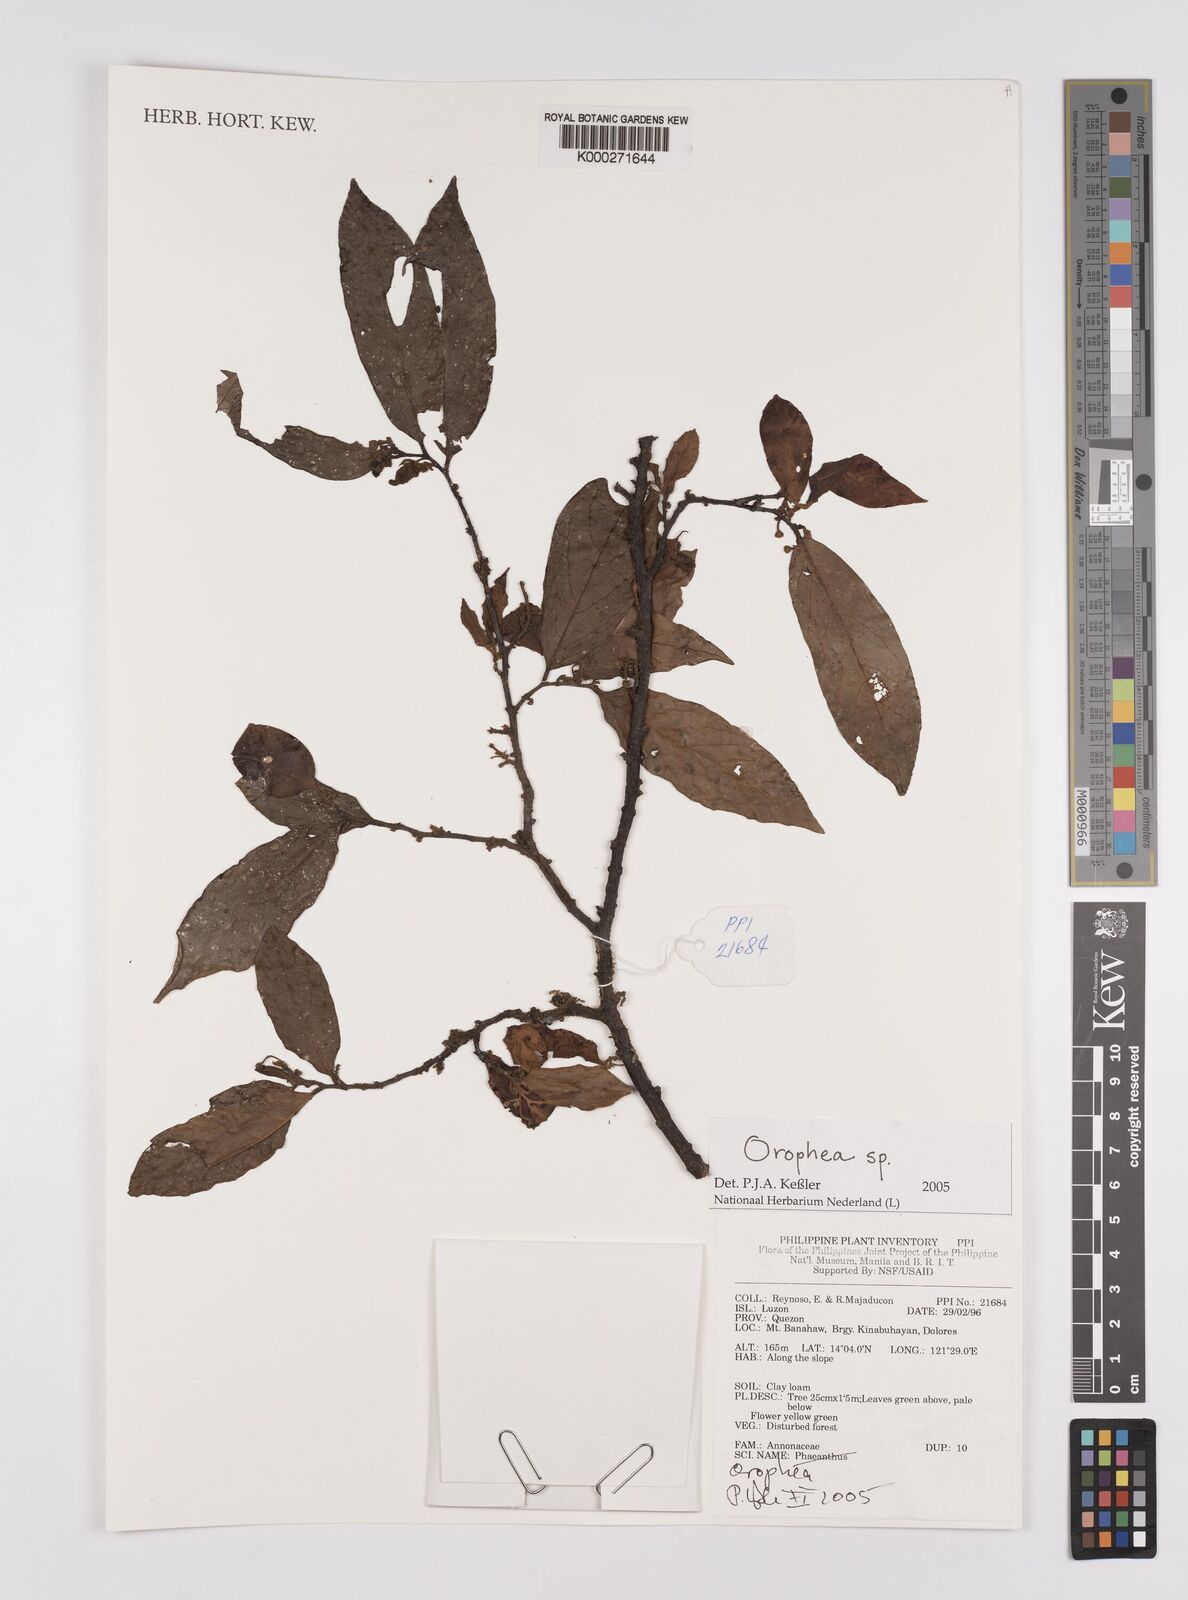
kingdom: Plantae
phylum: Tracheophyta
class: Magnoliopsida
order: Magnoliales
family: Annonaceae
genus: Orophea
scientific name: Orophea
